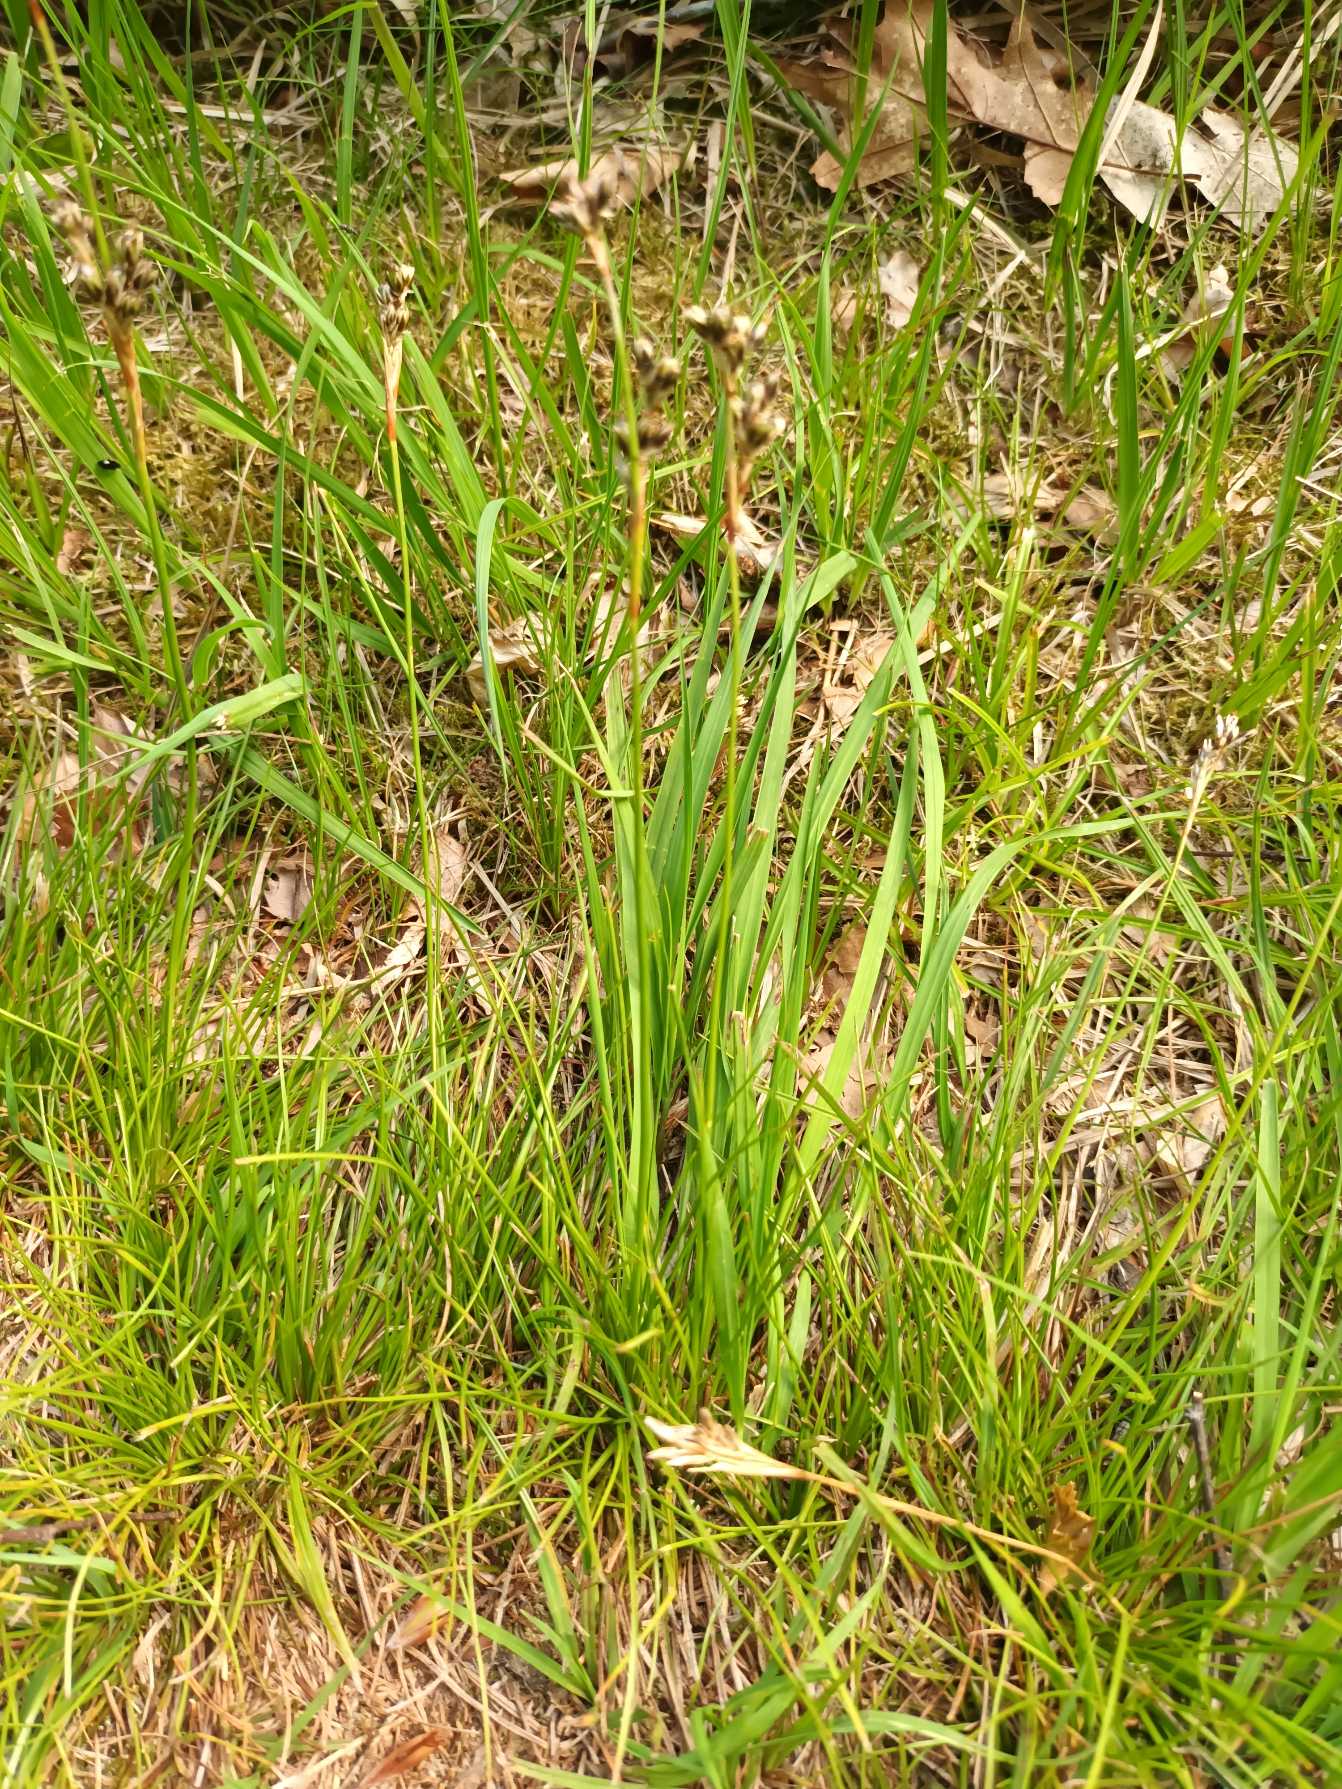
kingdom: Plantae
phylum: Tracheophyta
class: Liliopsida
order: Poales
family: Juncaceae
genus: Juncus
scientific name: Juncus squarrosus
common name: Børste-siv
